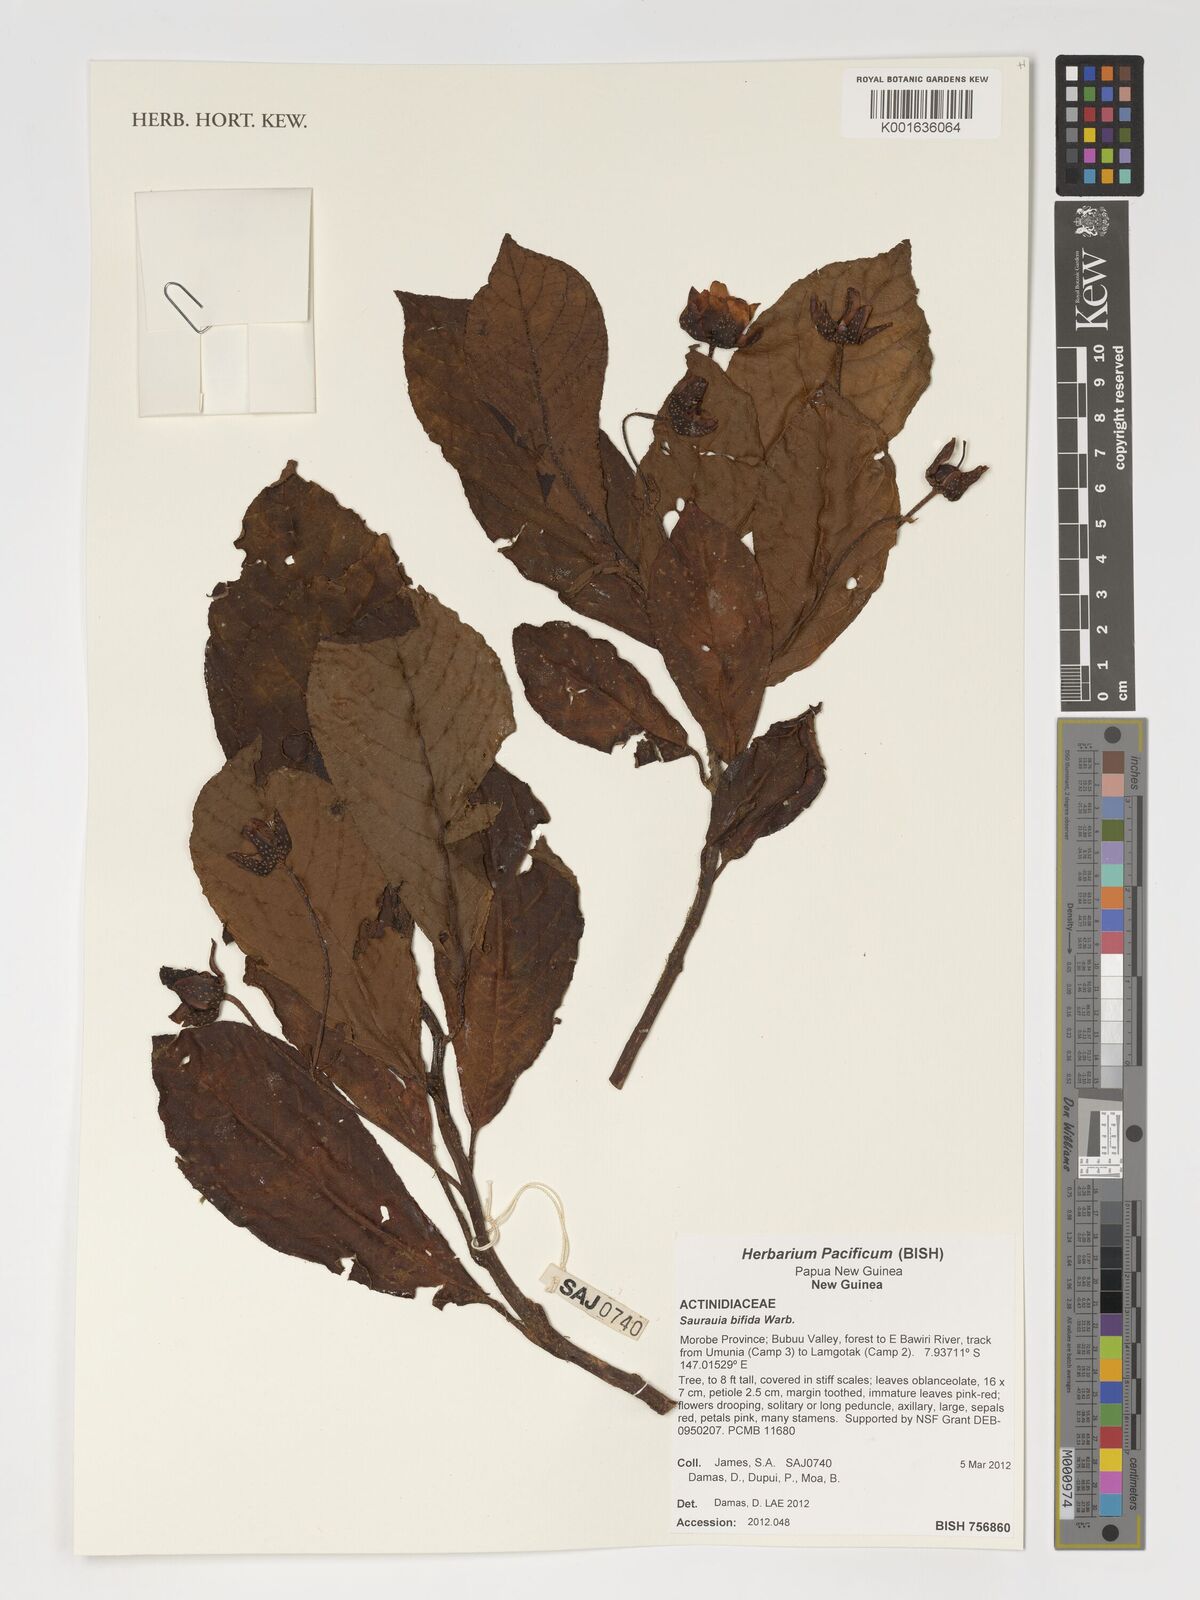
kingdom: Plantae
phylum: Tracheophyta
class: Magnoliopsida
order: Ericales
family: Actinidiaceae
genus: Saurauia
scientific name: Saurauia bifida
